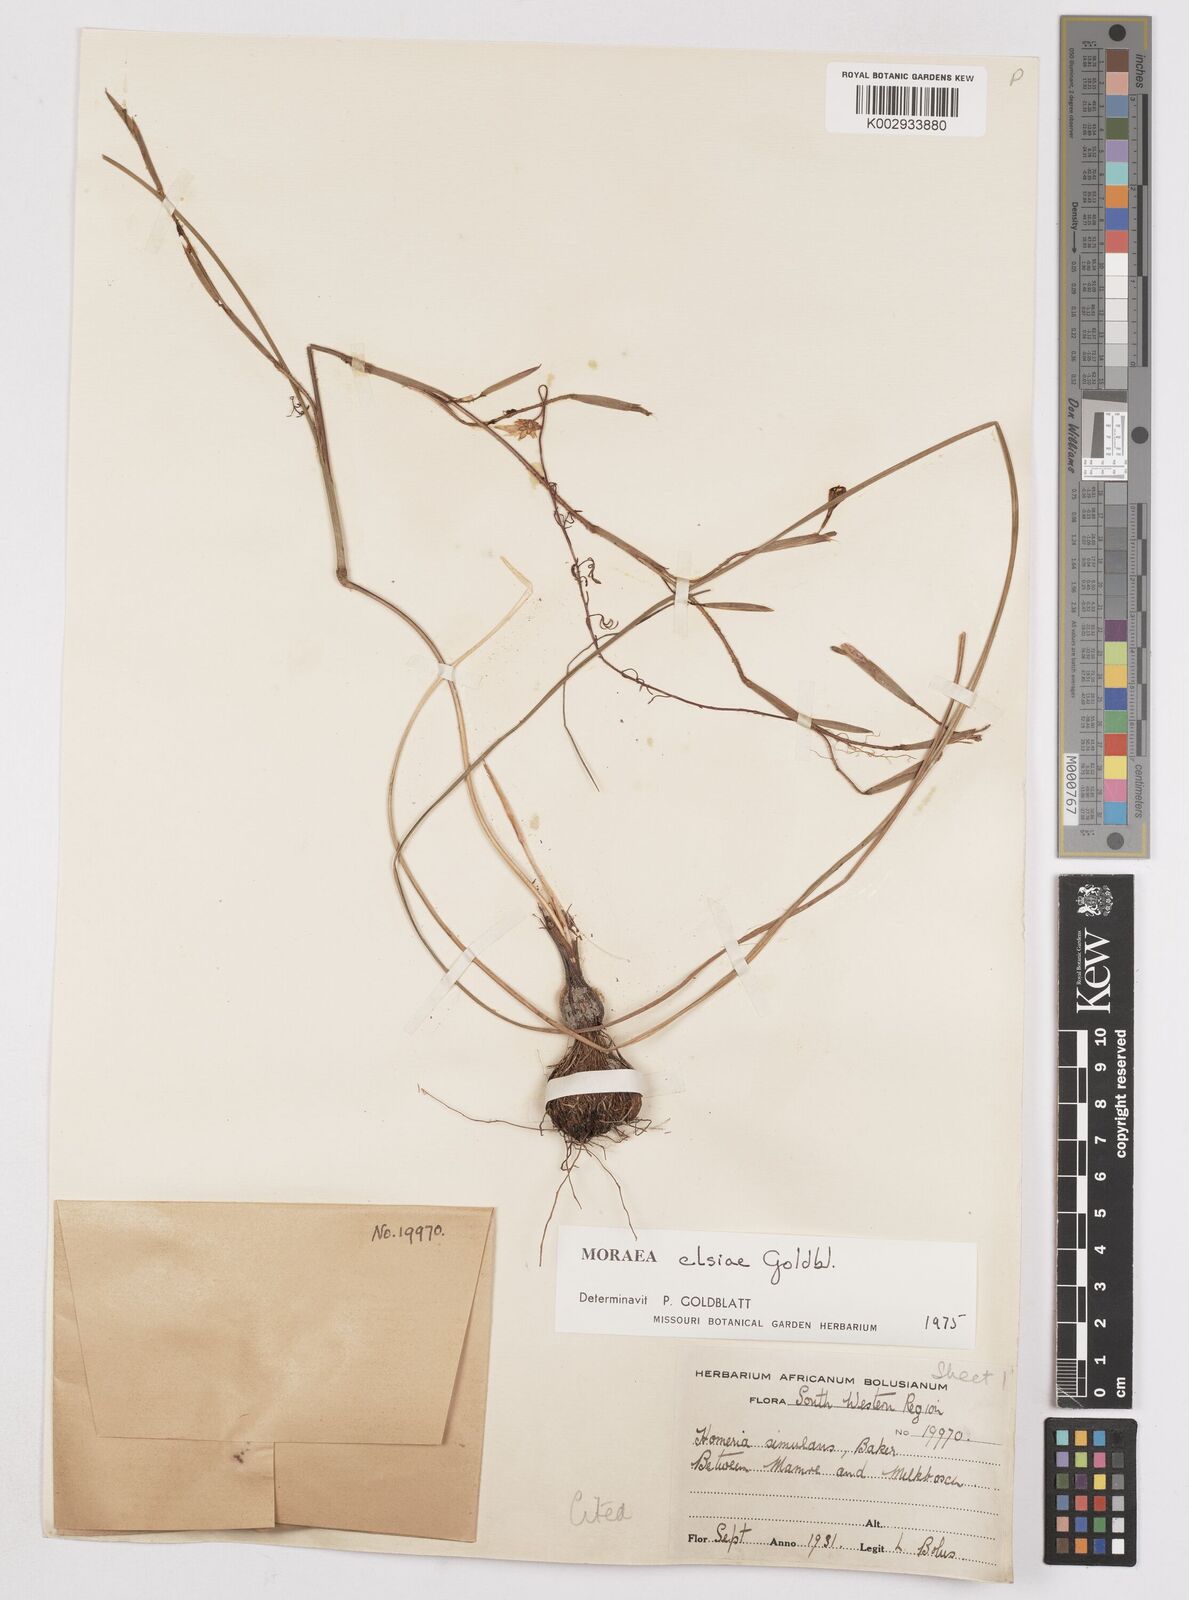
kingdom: Plantae
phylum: Tracheophyta
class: Liliopsida
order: Asparagales
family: Iridaceae
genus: Moraea
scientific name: Moraea elsiae
